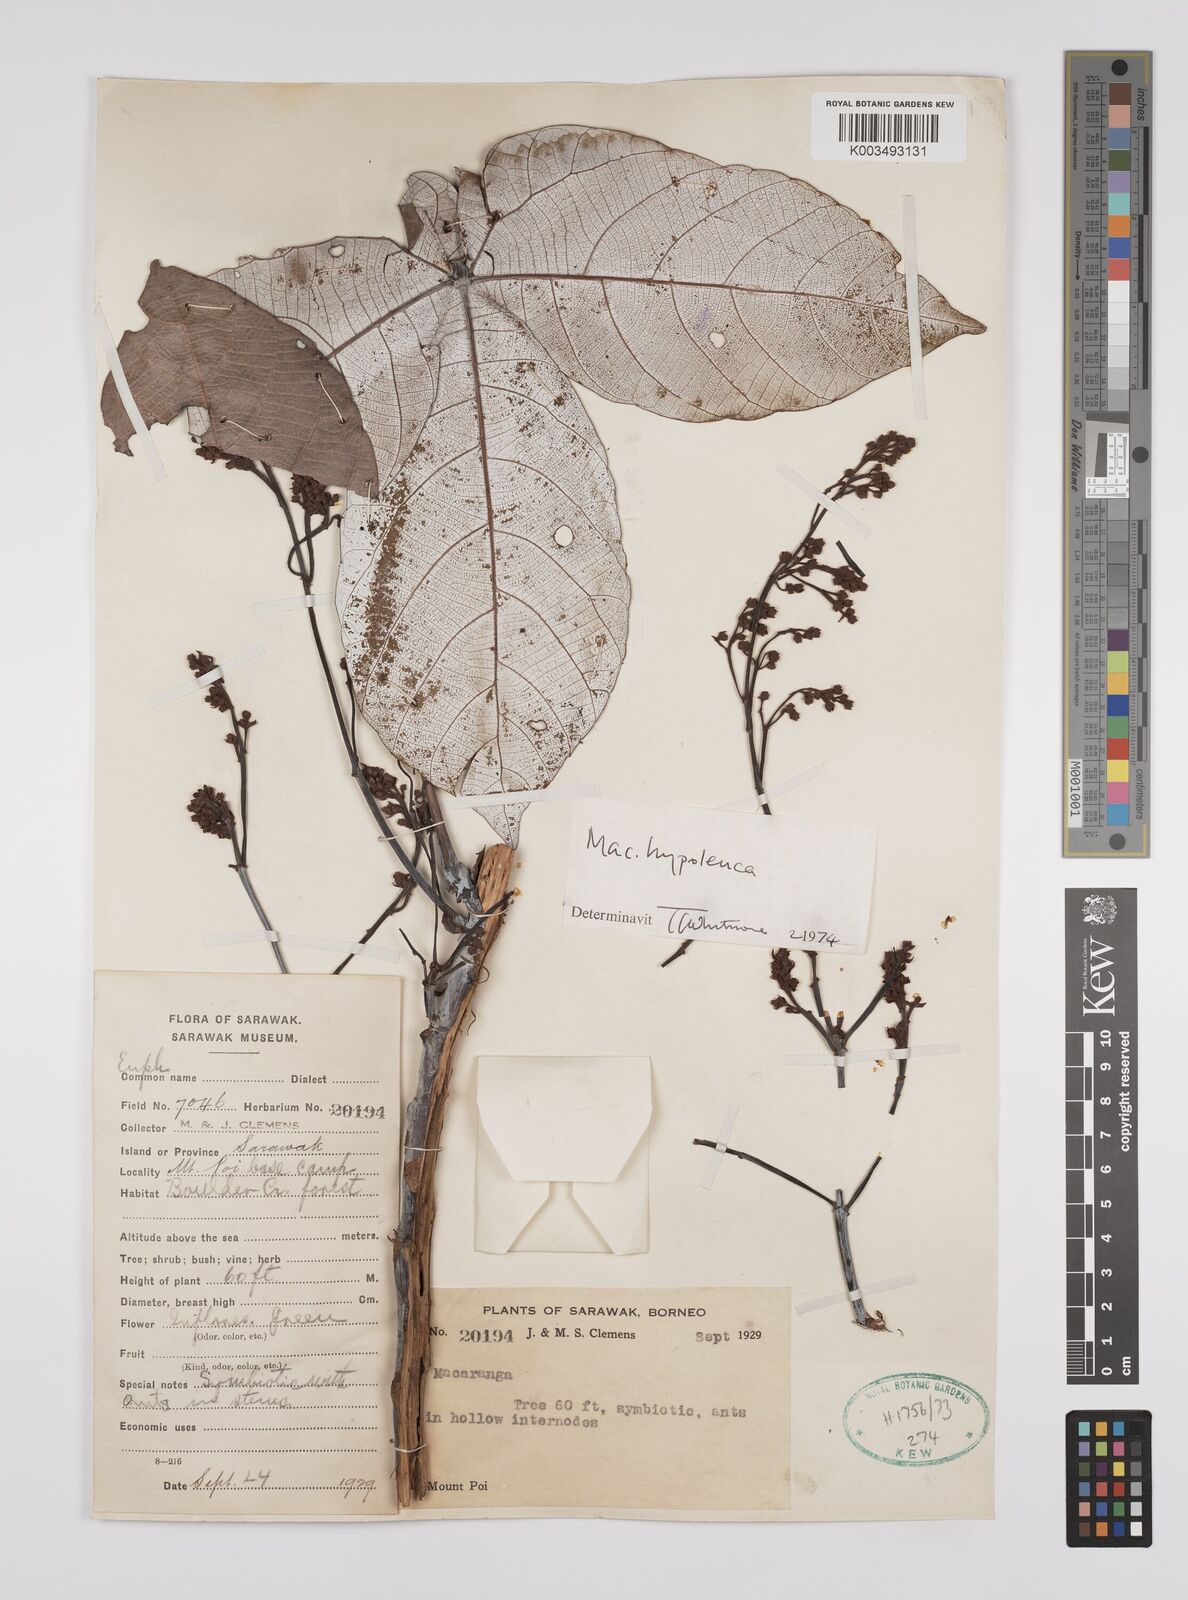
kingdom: Plantae
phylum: Tracheophyta
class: Magnoliopsida
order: Malpighiales
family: Euphorbiaceae
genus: Macaranga
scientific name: Macaranga hypoleuca
